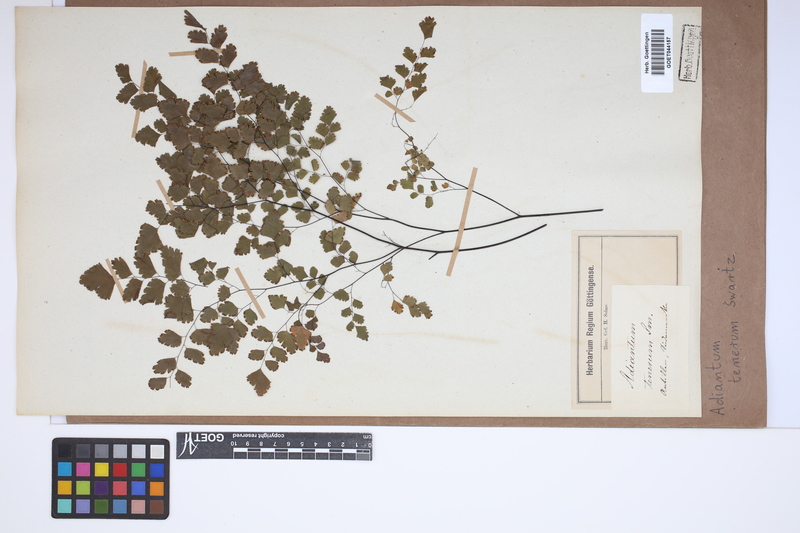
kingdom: Plantae
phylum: Tracheophyta
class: Polypodiopsida
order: Polypodiales
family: Pteridaceae
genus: Adiantum
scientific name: Adiantum tenerum
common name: Fan maidenhair
